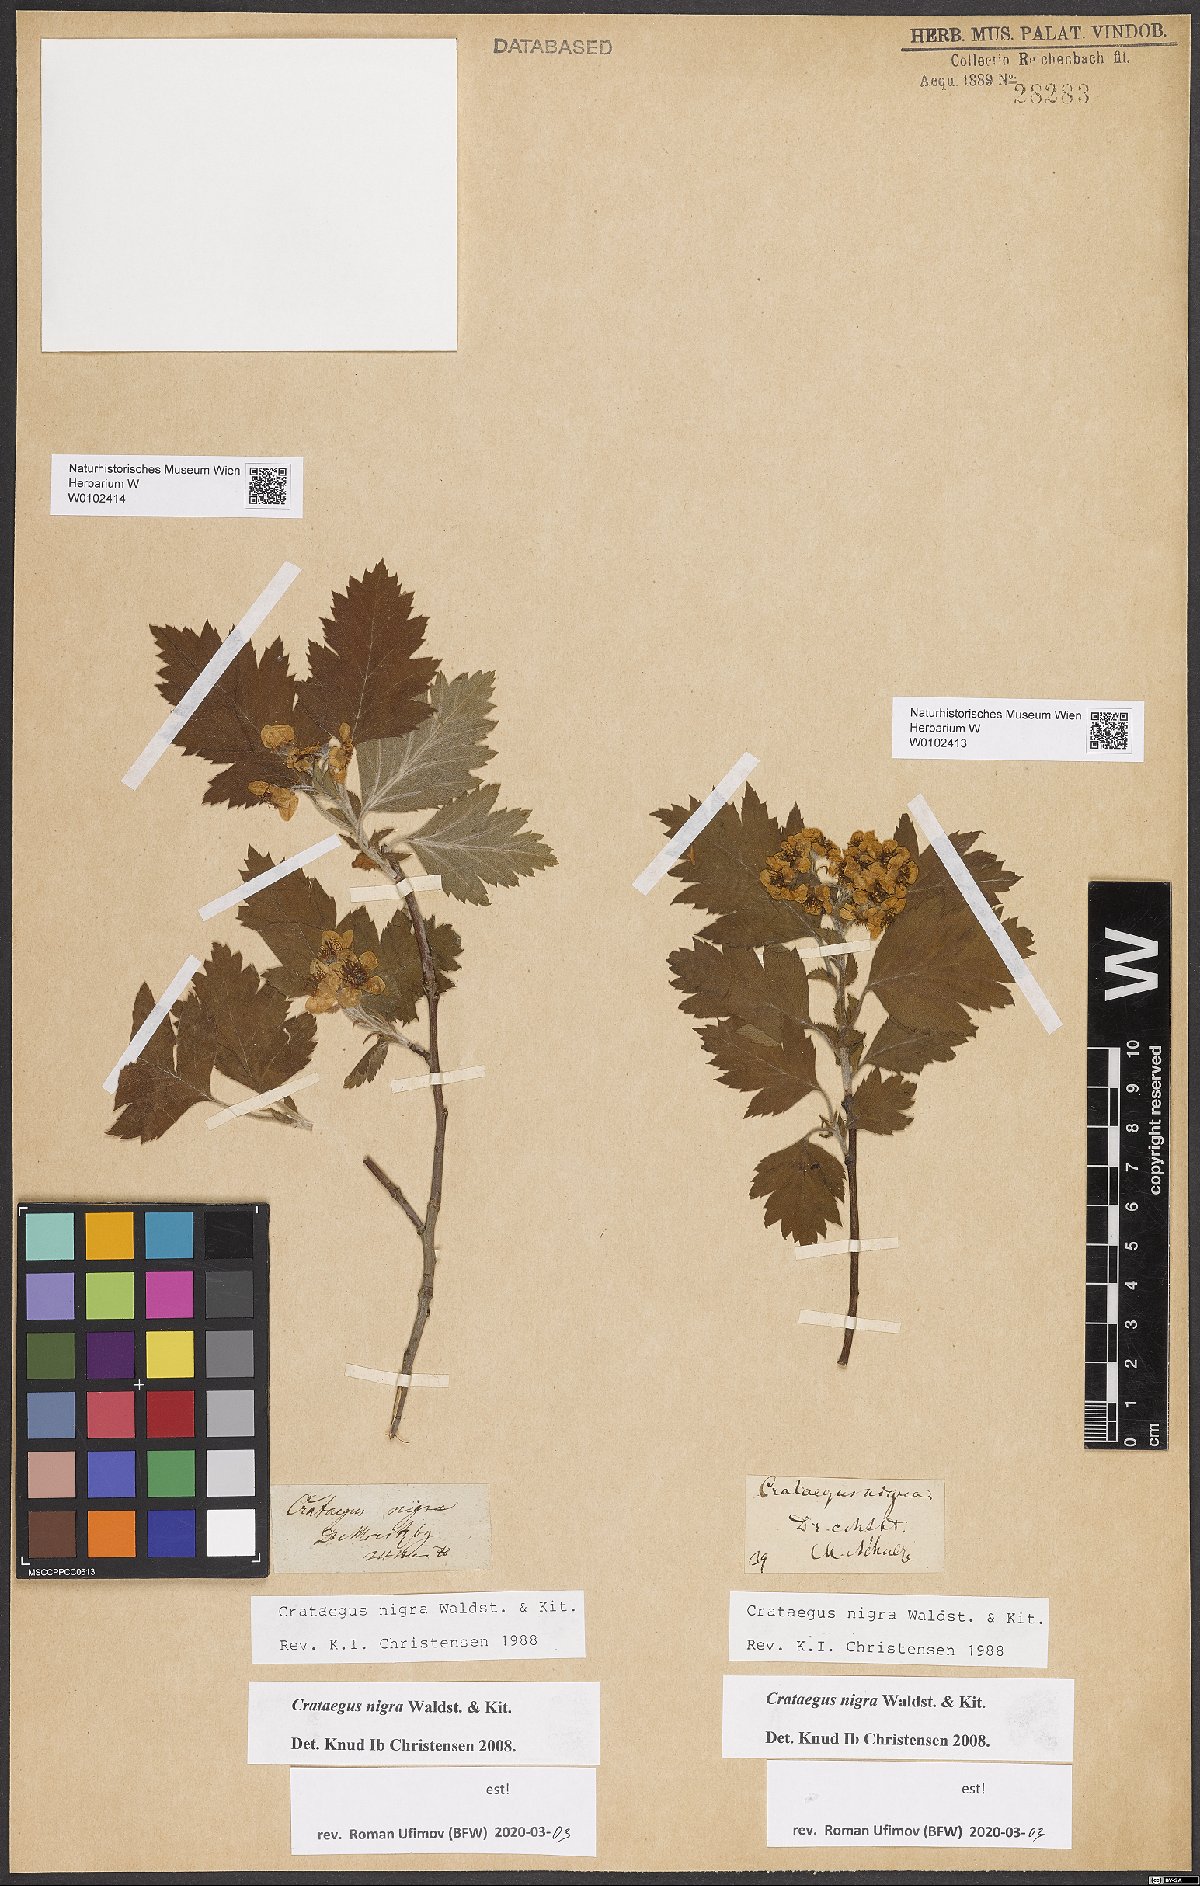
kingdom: Plantae
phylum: Tracheophyta
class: Magnoliopsida
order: Rosales
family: Rosaceae
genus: Crataegus
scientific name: Crataegus nigra
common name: Hungarian thorn
